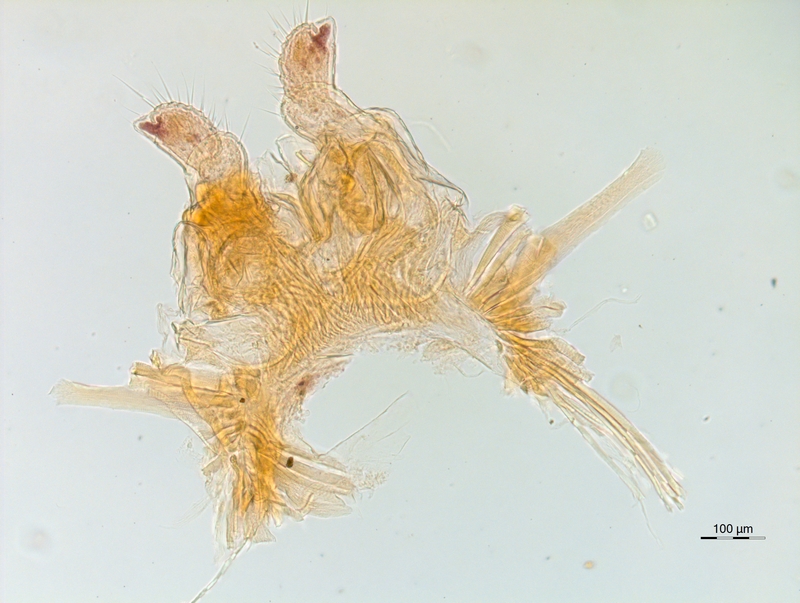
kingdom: Animalia
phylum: Arthropoda
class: Diplopoda
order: Chordeumatida
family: Chordeumatidae
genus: Orthochordeumella
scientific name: Orthochordeumella pallida
